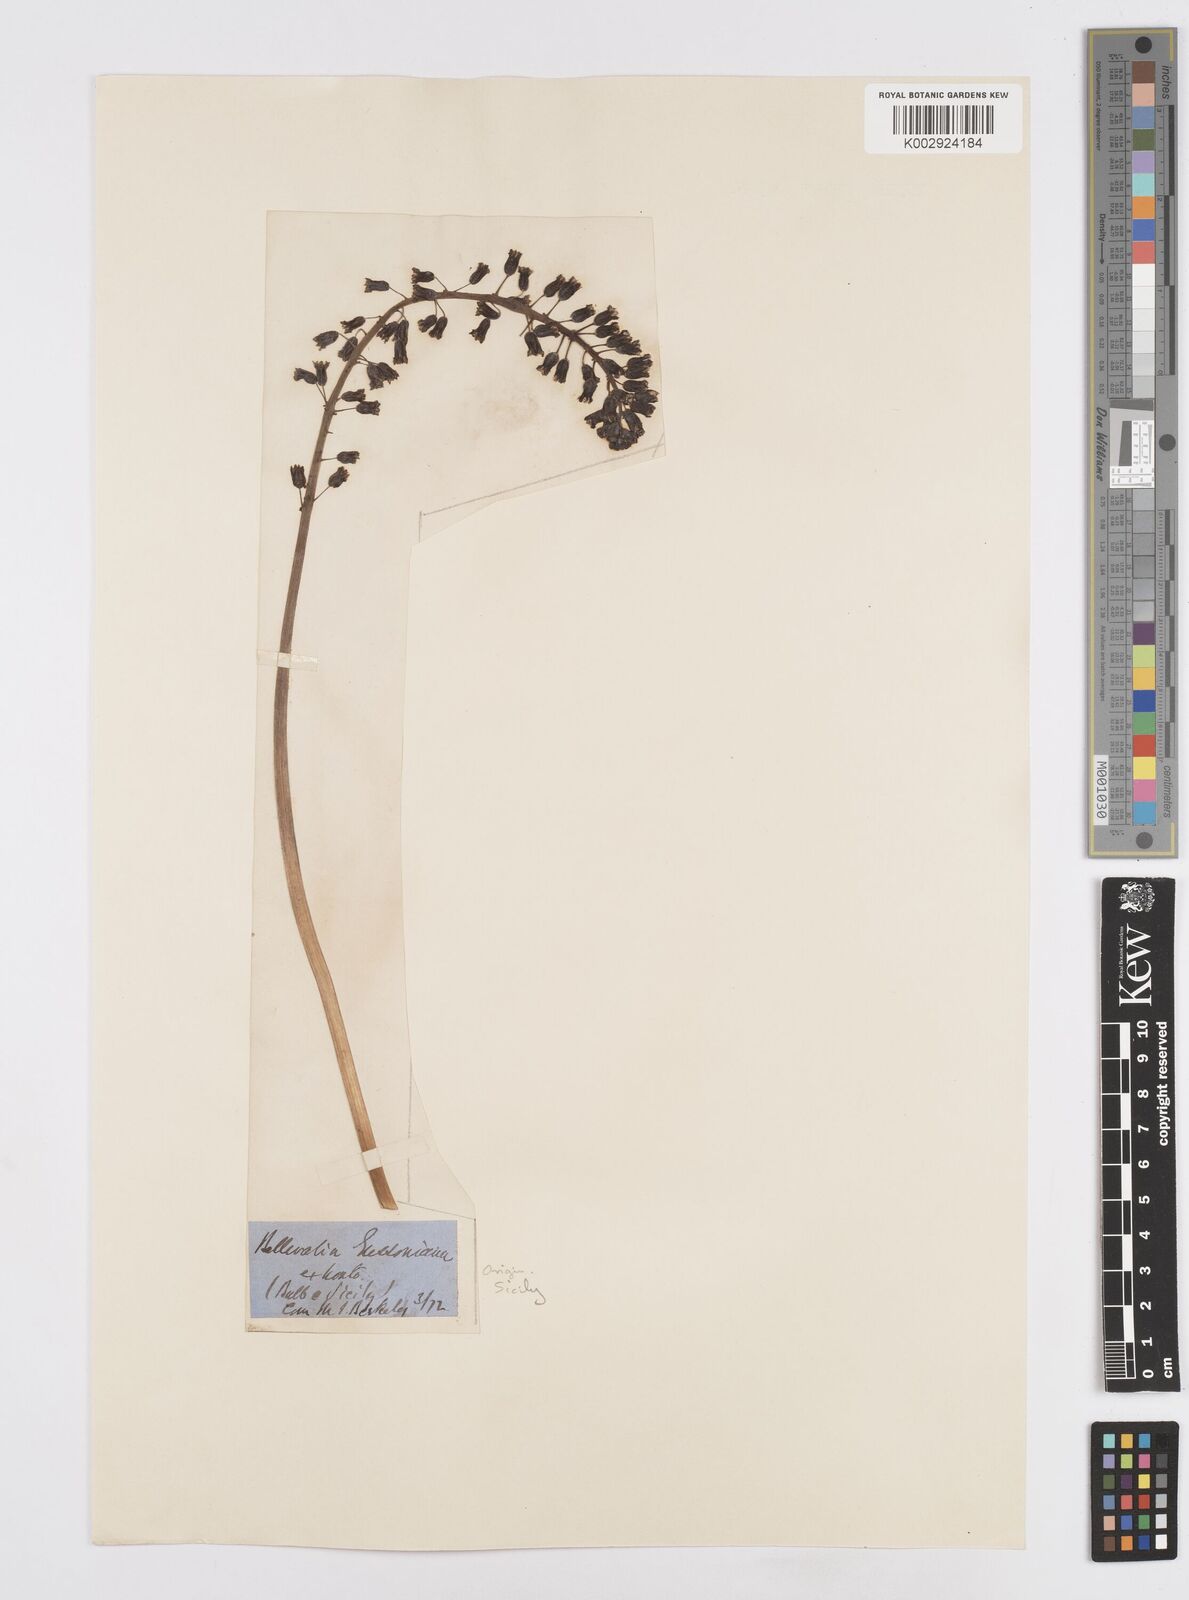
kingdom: Plantae
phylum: Tracheophyta
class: Liliopsida
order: Asparagales
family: Asparagaceae
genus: Bellevalia
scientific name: Bellevalia
